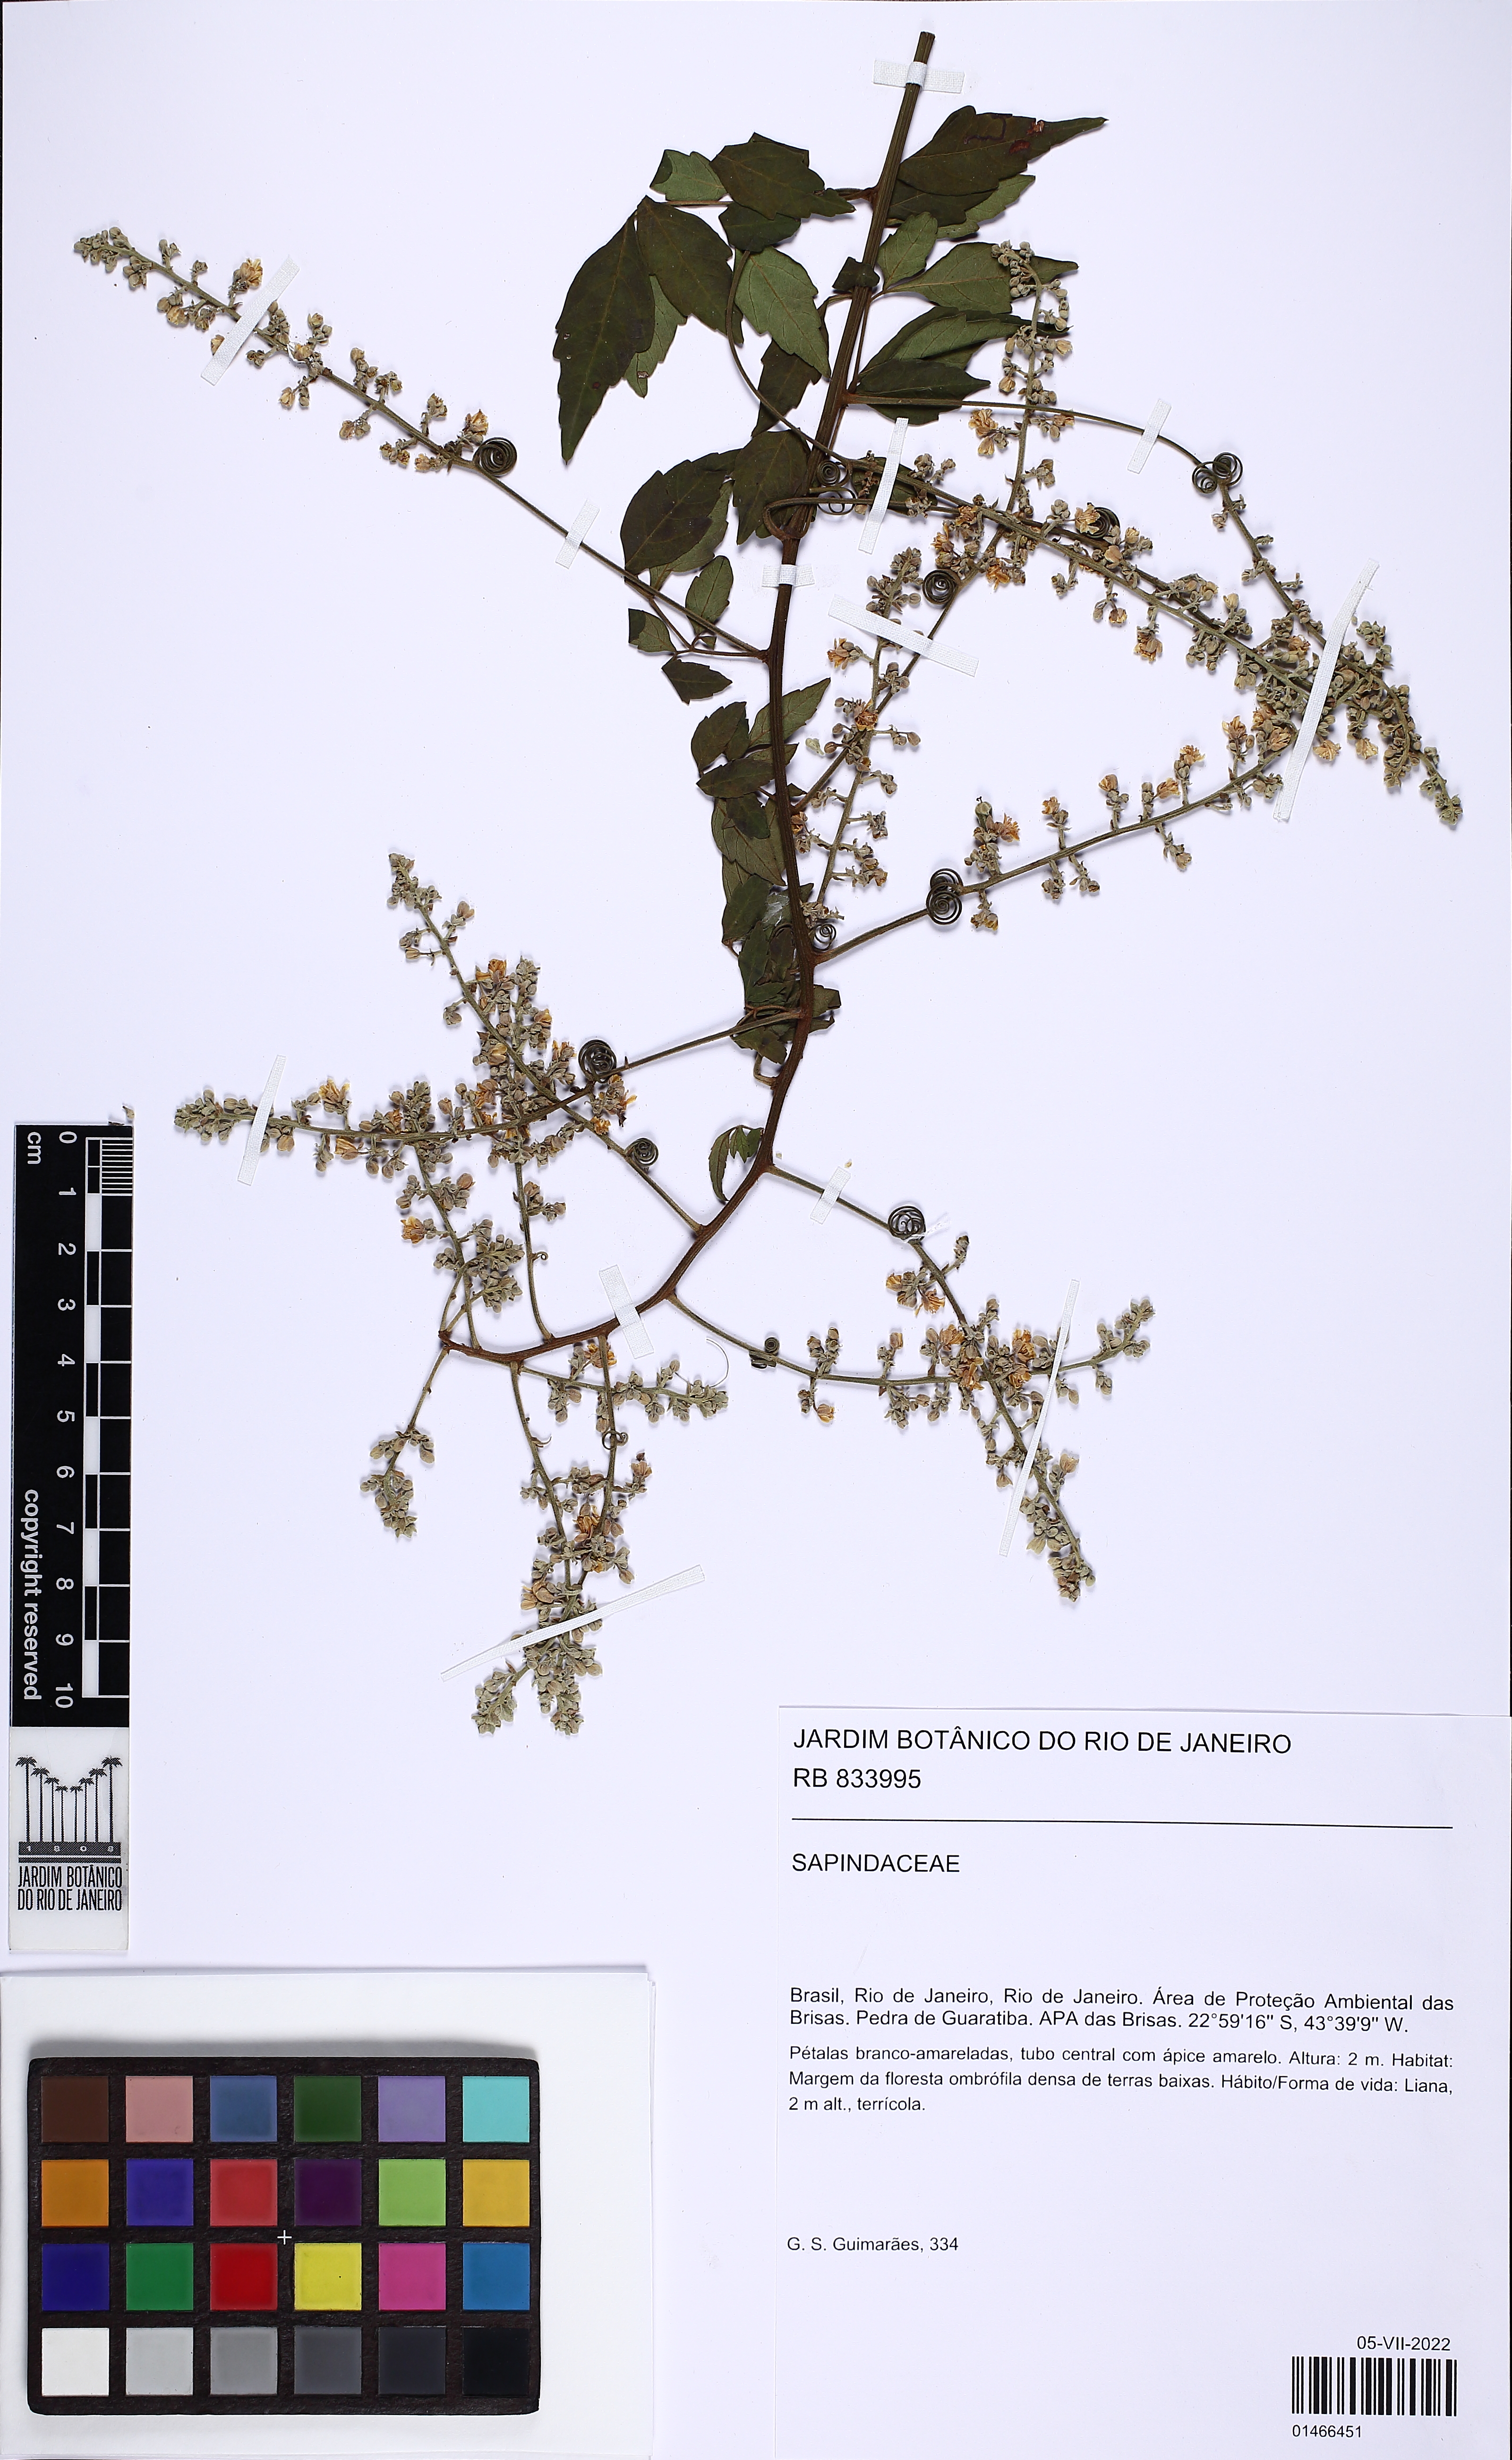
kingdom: Plantae
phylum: Tracheophyta
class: Magnoliopsida
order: Sapindales
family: Sapindaceae
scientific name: Sapindaceae
